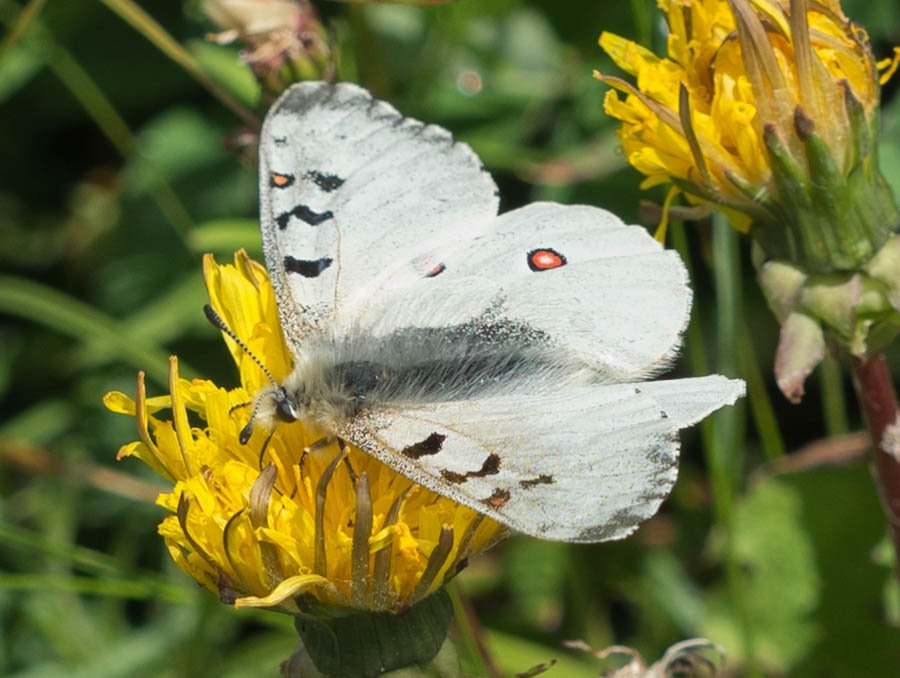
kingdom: Animalia
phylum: Arthropoda
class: Insecta
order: Lepidoptera
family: Papilionidae
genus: Parnassius
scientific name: Parnassius smintheus
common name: Rocky Mountain Parnassian
